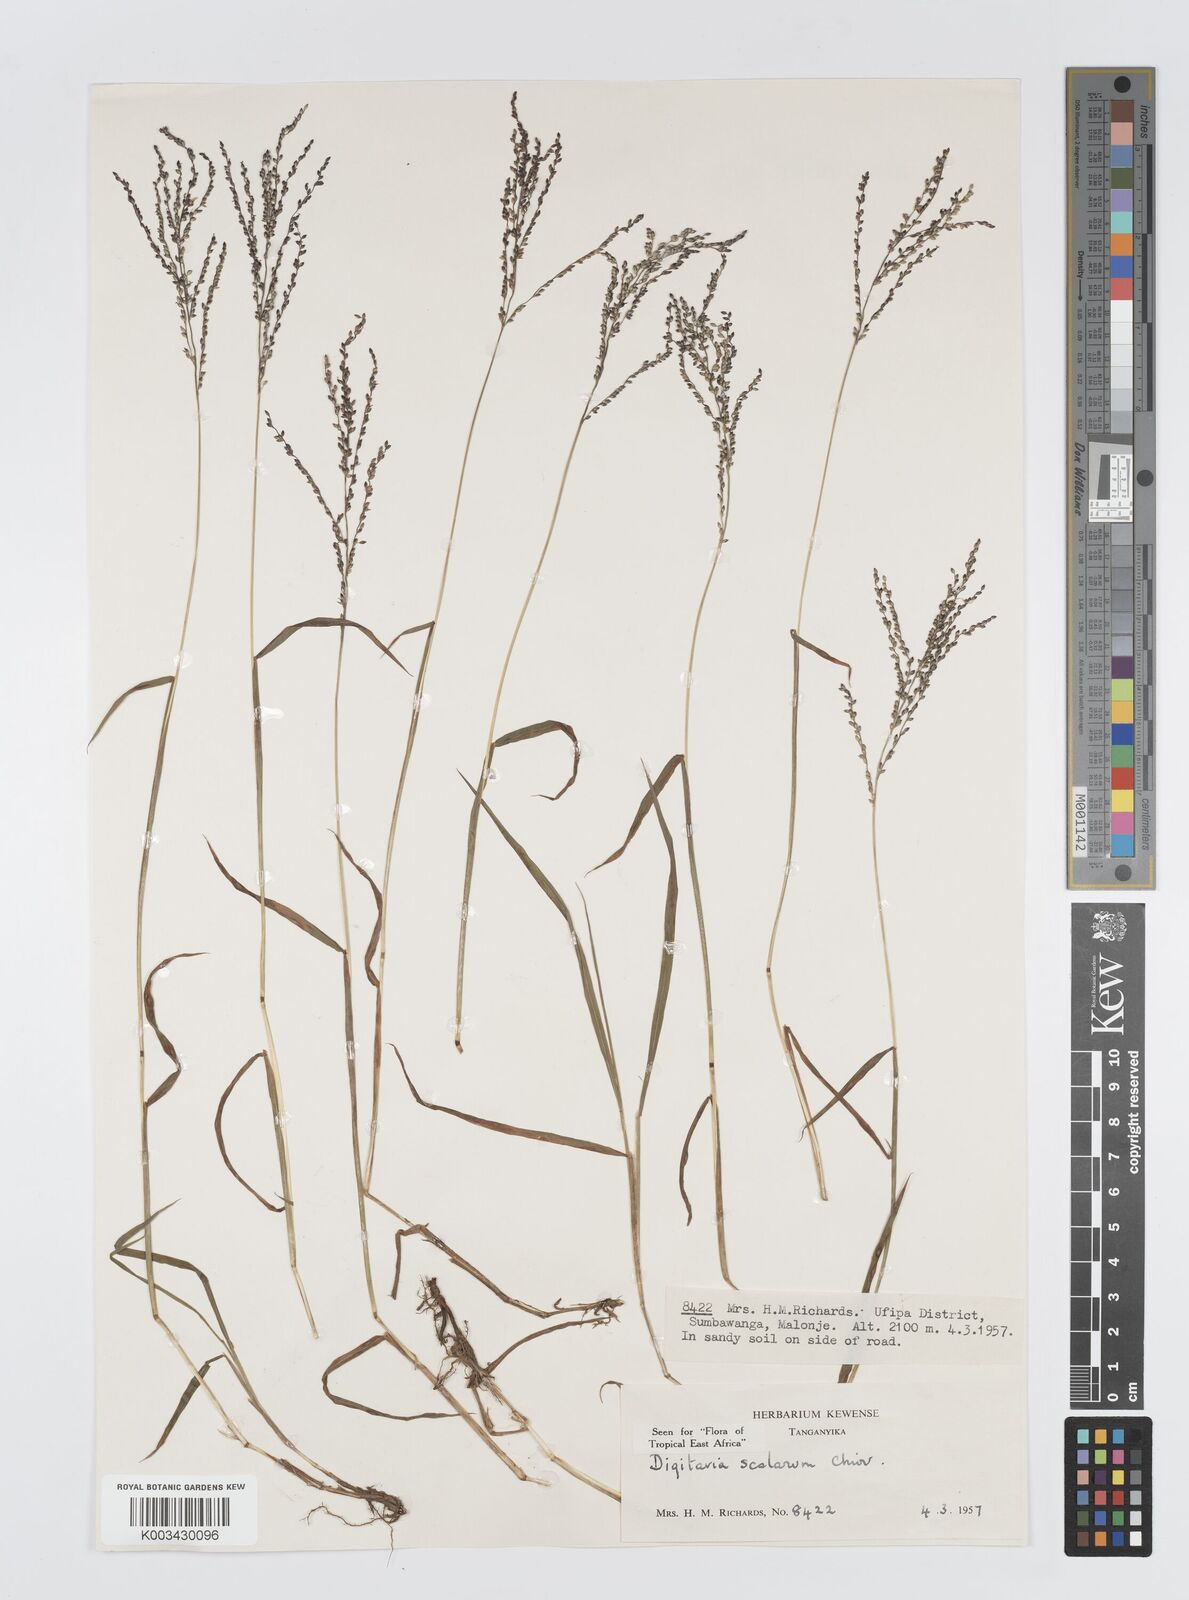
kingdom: Plantae
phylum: Tracheophyta
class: Liliopsida
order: Poales
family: Poaceae
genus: Digitaria
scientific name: Digitaria abyssinica
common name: African couchgrass
